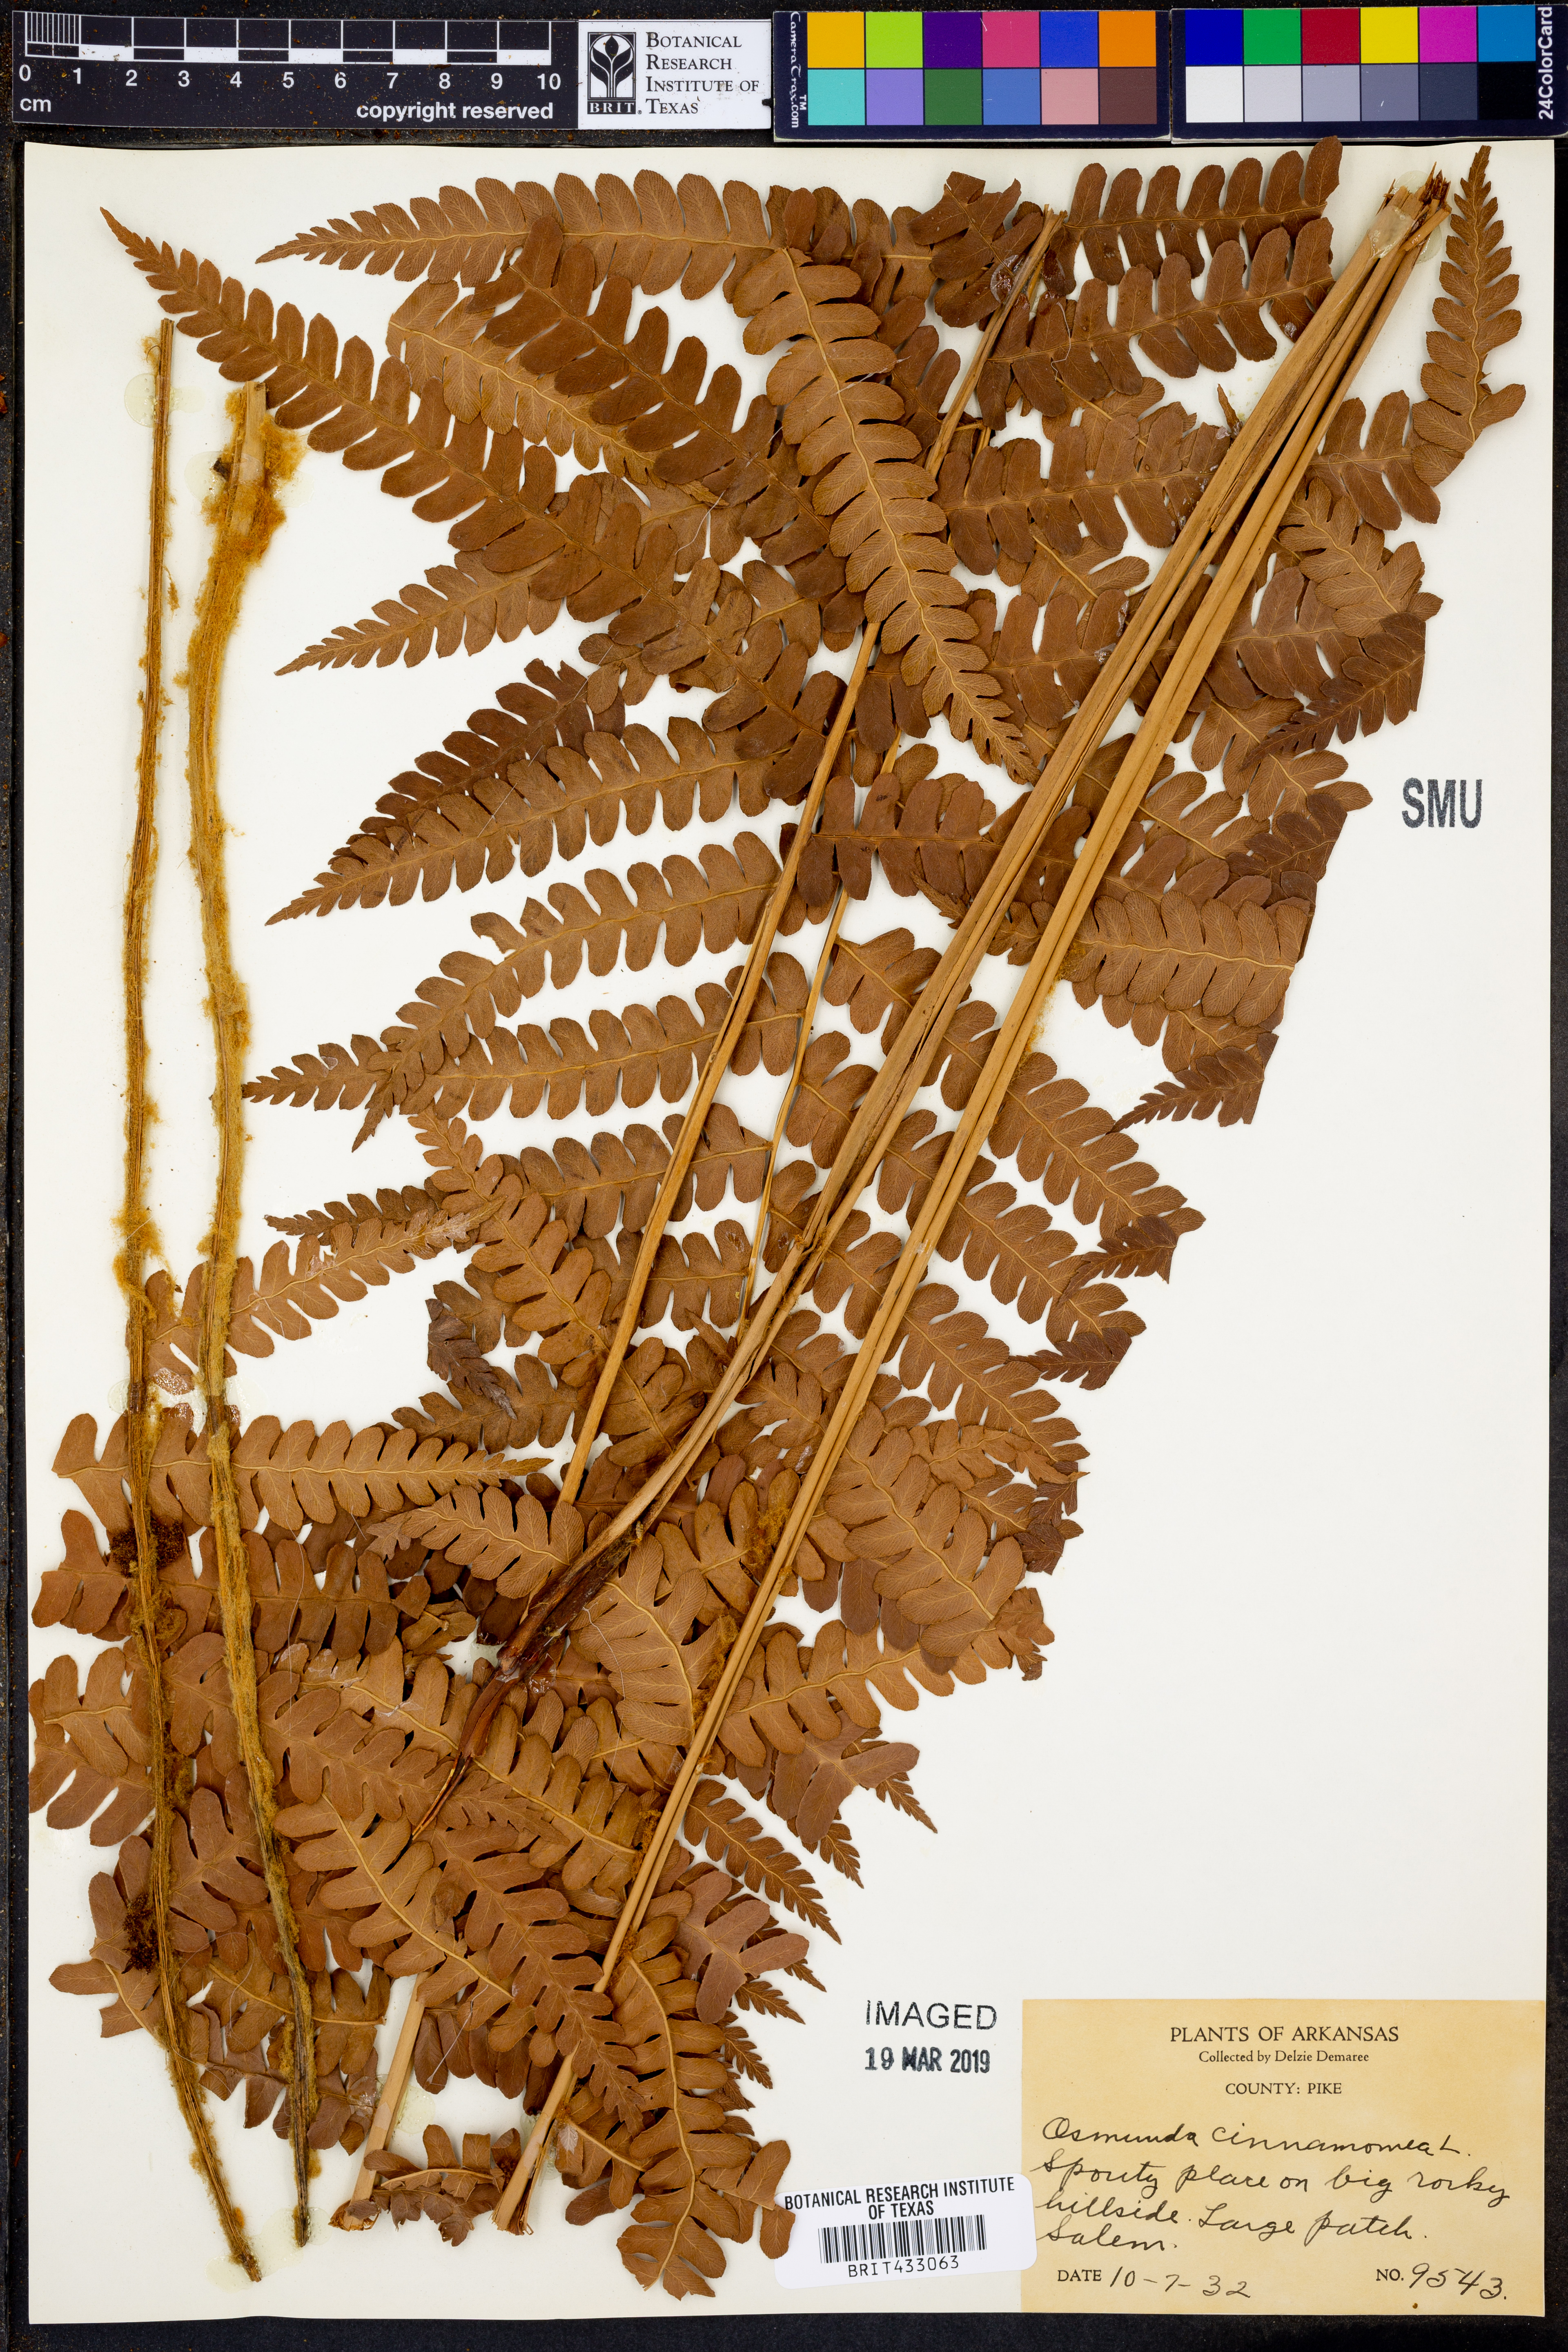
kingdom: Plantae
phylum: Tracheophyta
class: Polypodiopsida
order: Osmundales
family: Osmundaceae
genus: Osmundastrum
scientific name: Osmundastrum cinnamomeum
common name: Cinnamon fern
